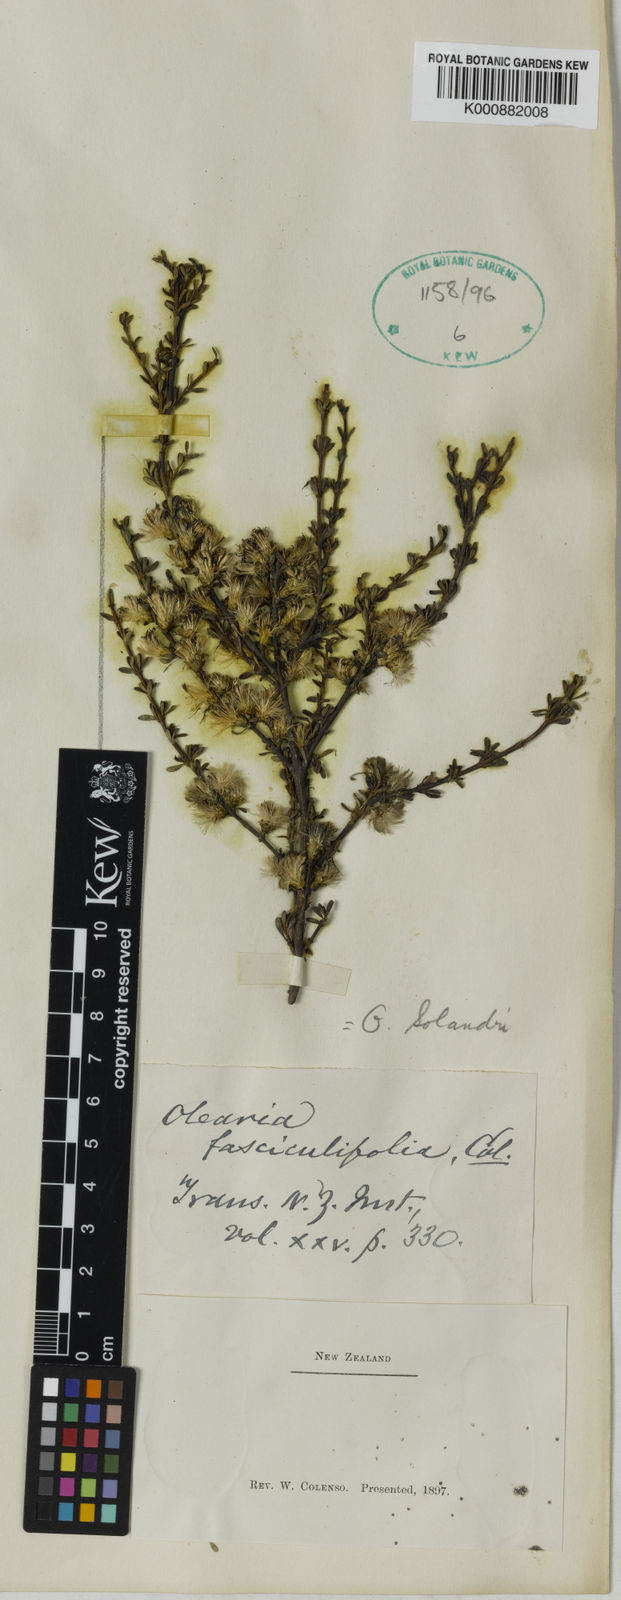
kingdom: Plantae
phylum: Tracheophyta
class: Magnoliopsida
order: Asterales
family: Asteraceae
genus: Olearia
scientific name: Olearia solandri
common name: Coastal daisybush
